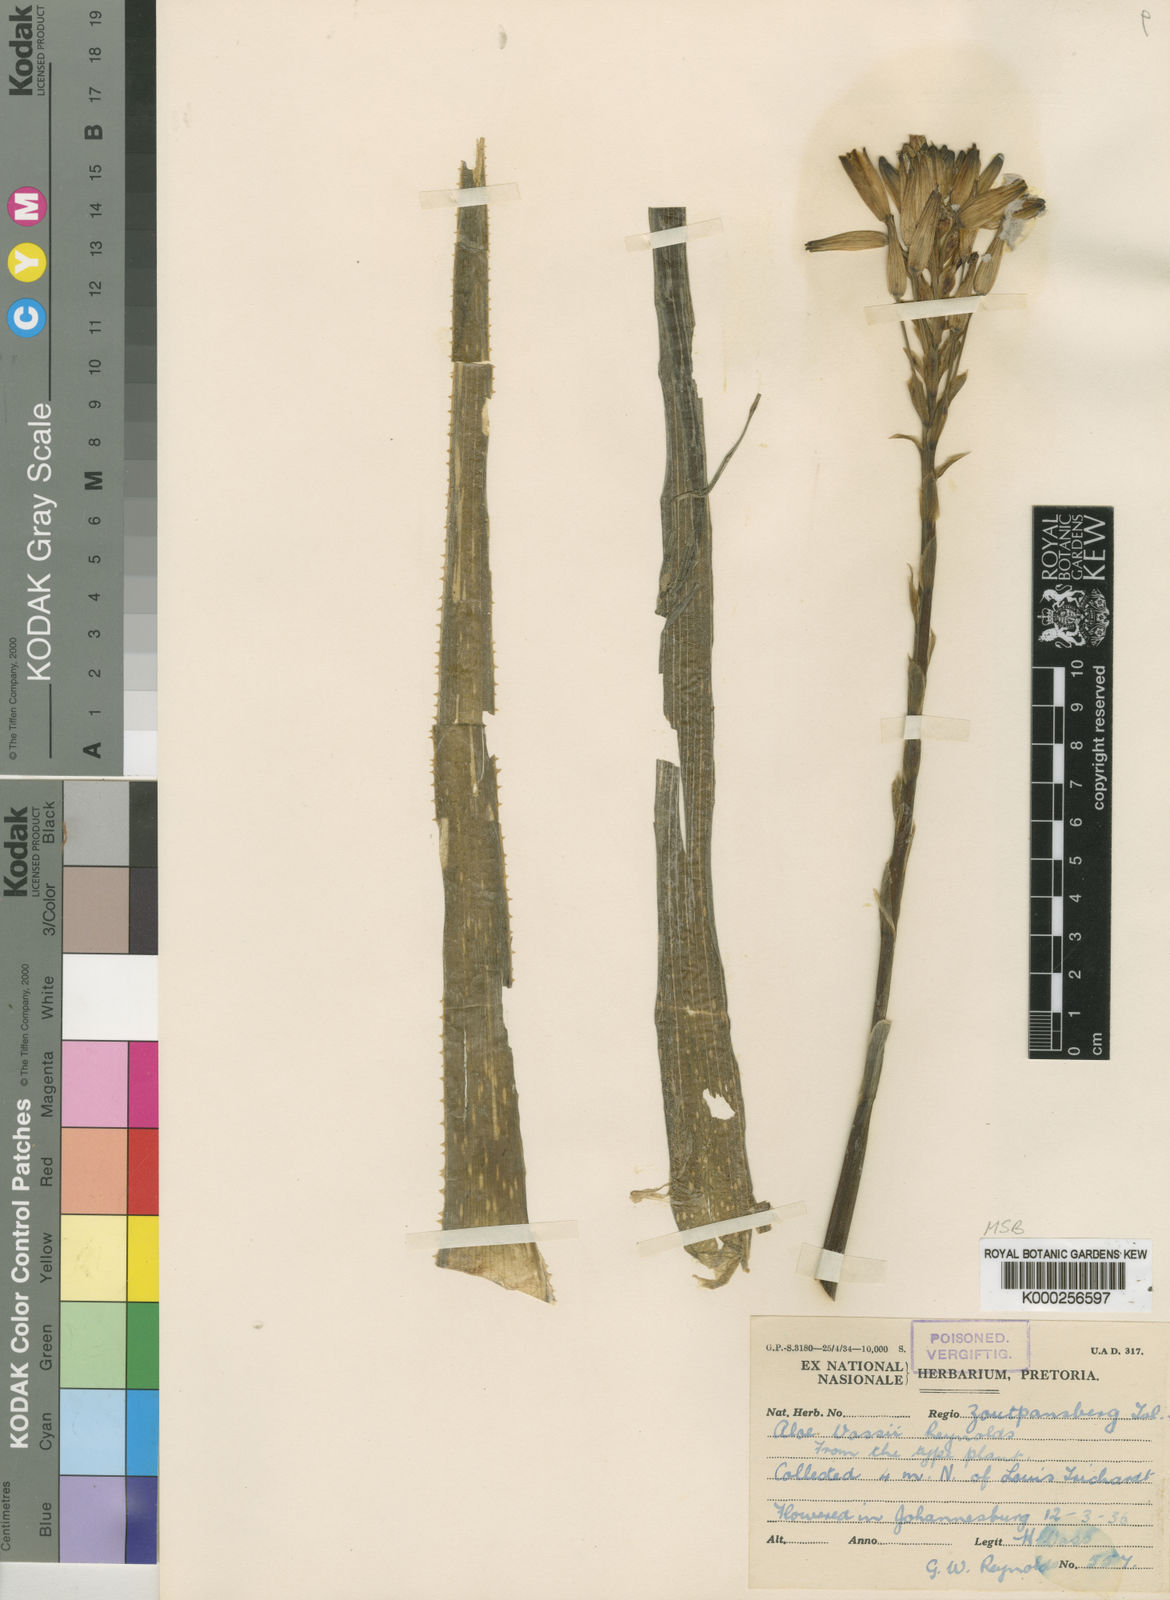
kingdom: Plantae
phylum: Tracheophyta
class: Liliopsida
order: Asparagales
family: Asphodelaceae
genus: Aloe
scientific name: Aloe vossii
